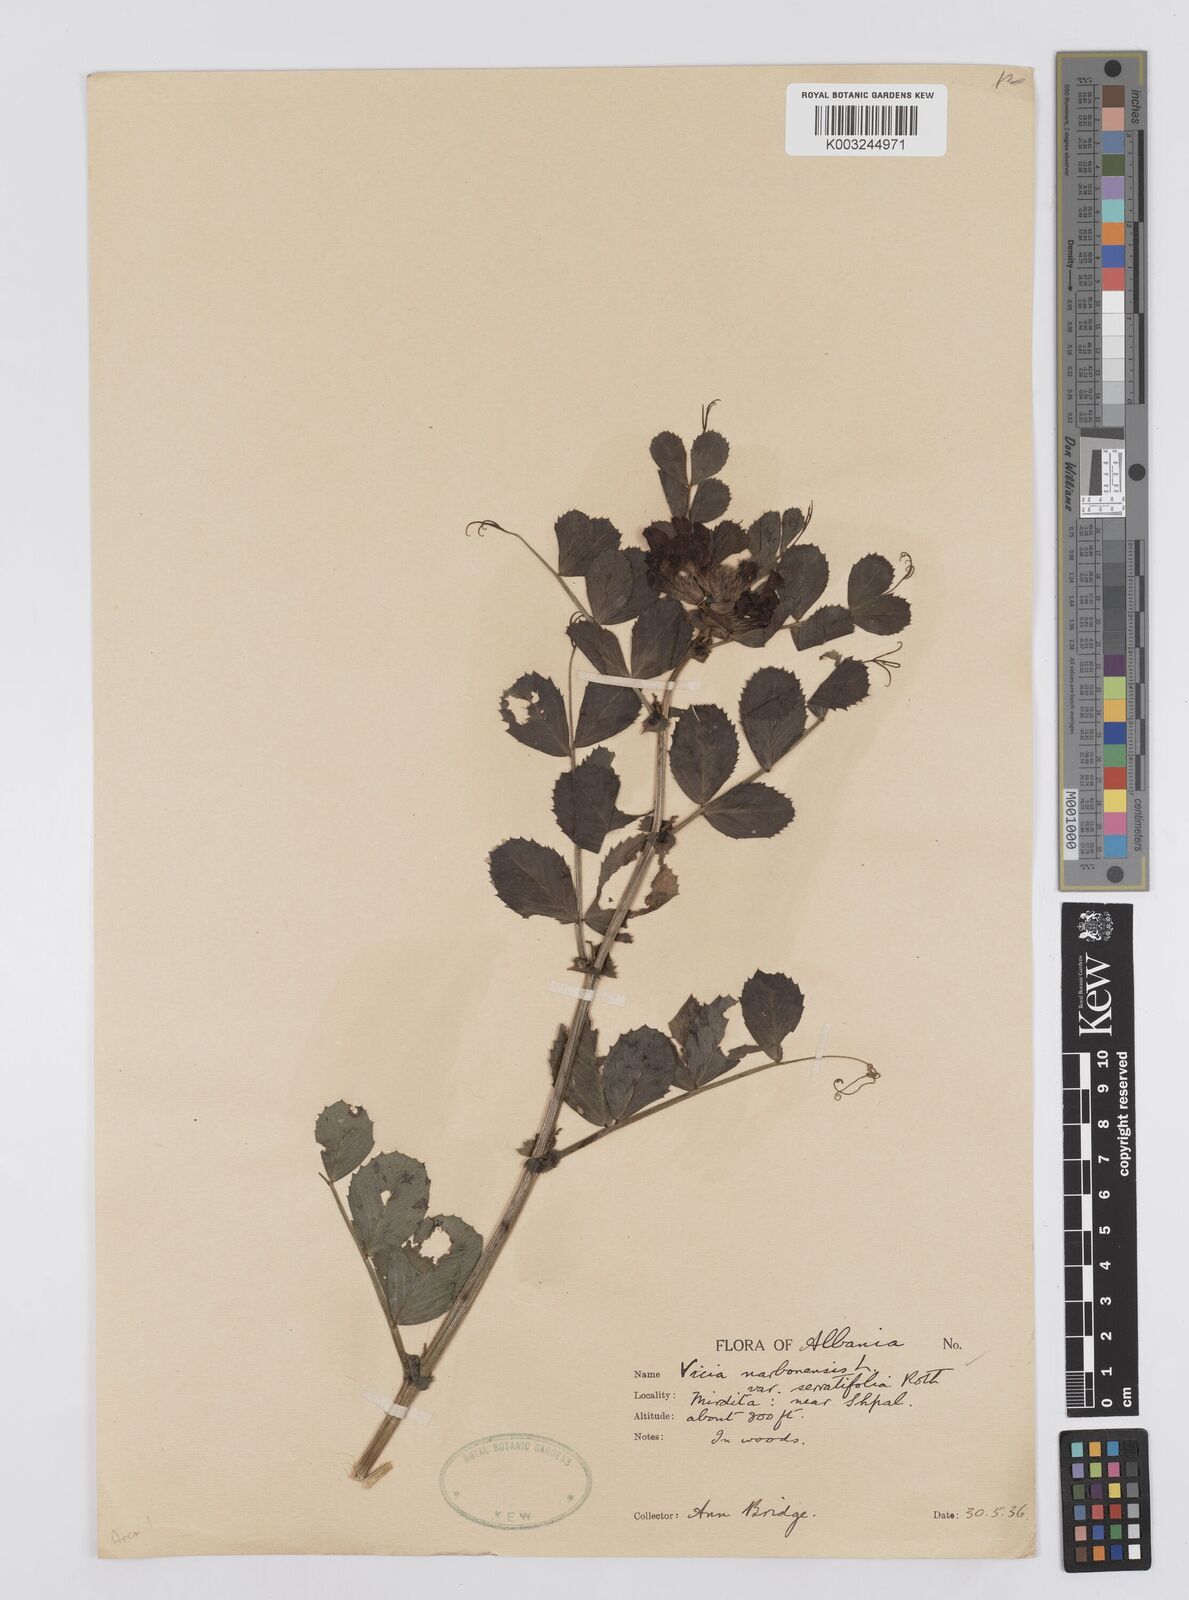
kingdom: Plantae
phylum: Tracheophyta
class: Magnoliopsida
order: Fabales
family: Fabaceae
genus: Vicia
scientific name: Vicia serratifolia
